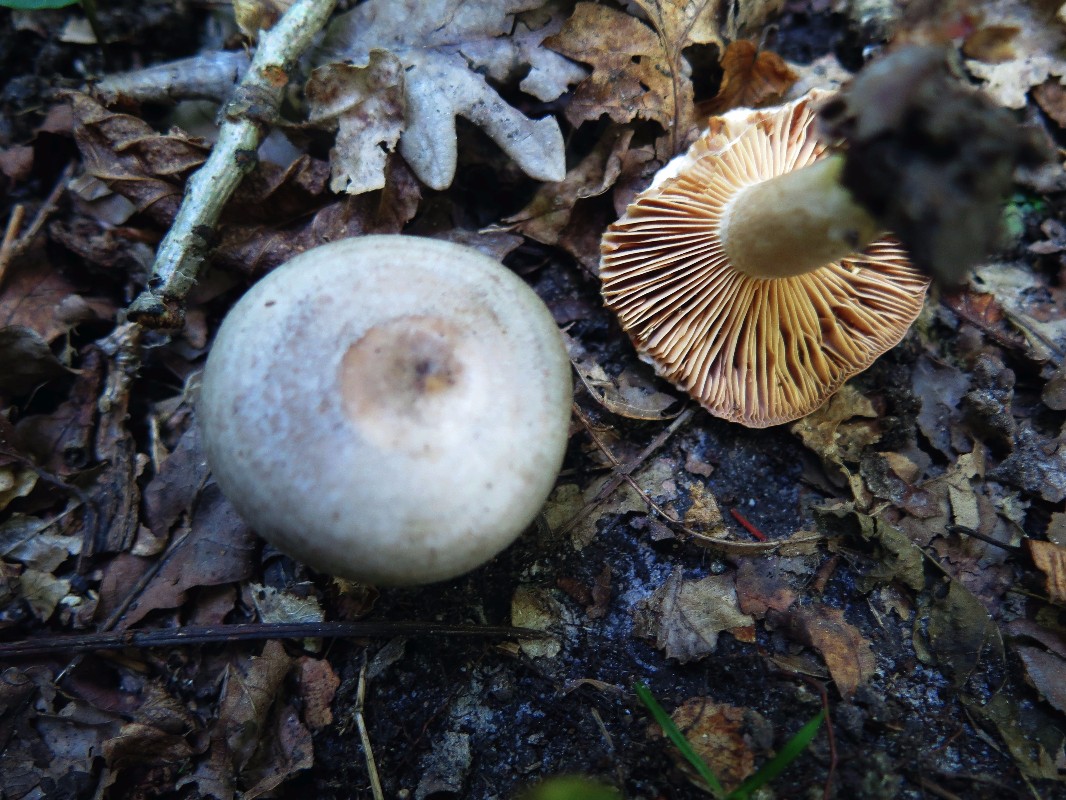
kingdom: Fungi
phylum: Basidiomycota
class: Agaricomycetes
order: Russulales
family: Russulaceae
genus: Lactarius
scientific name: Lactarius circellatus
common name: avnbøg-mælkehat
